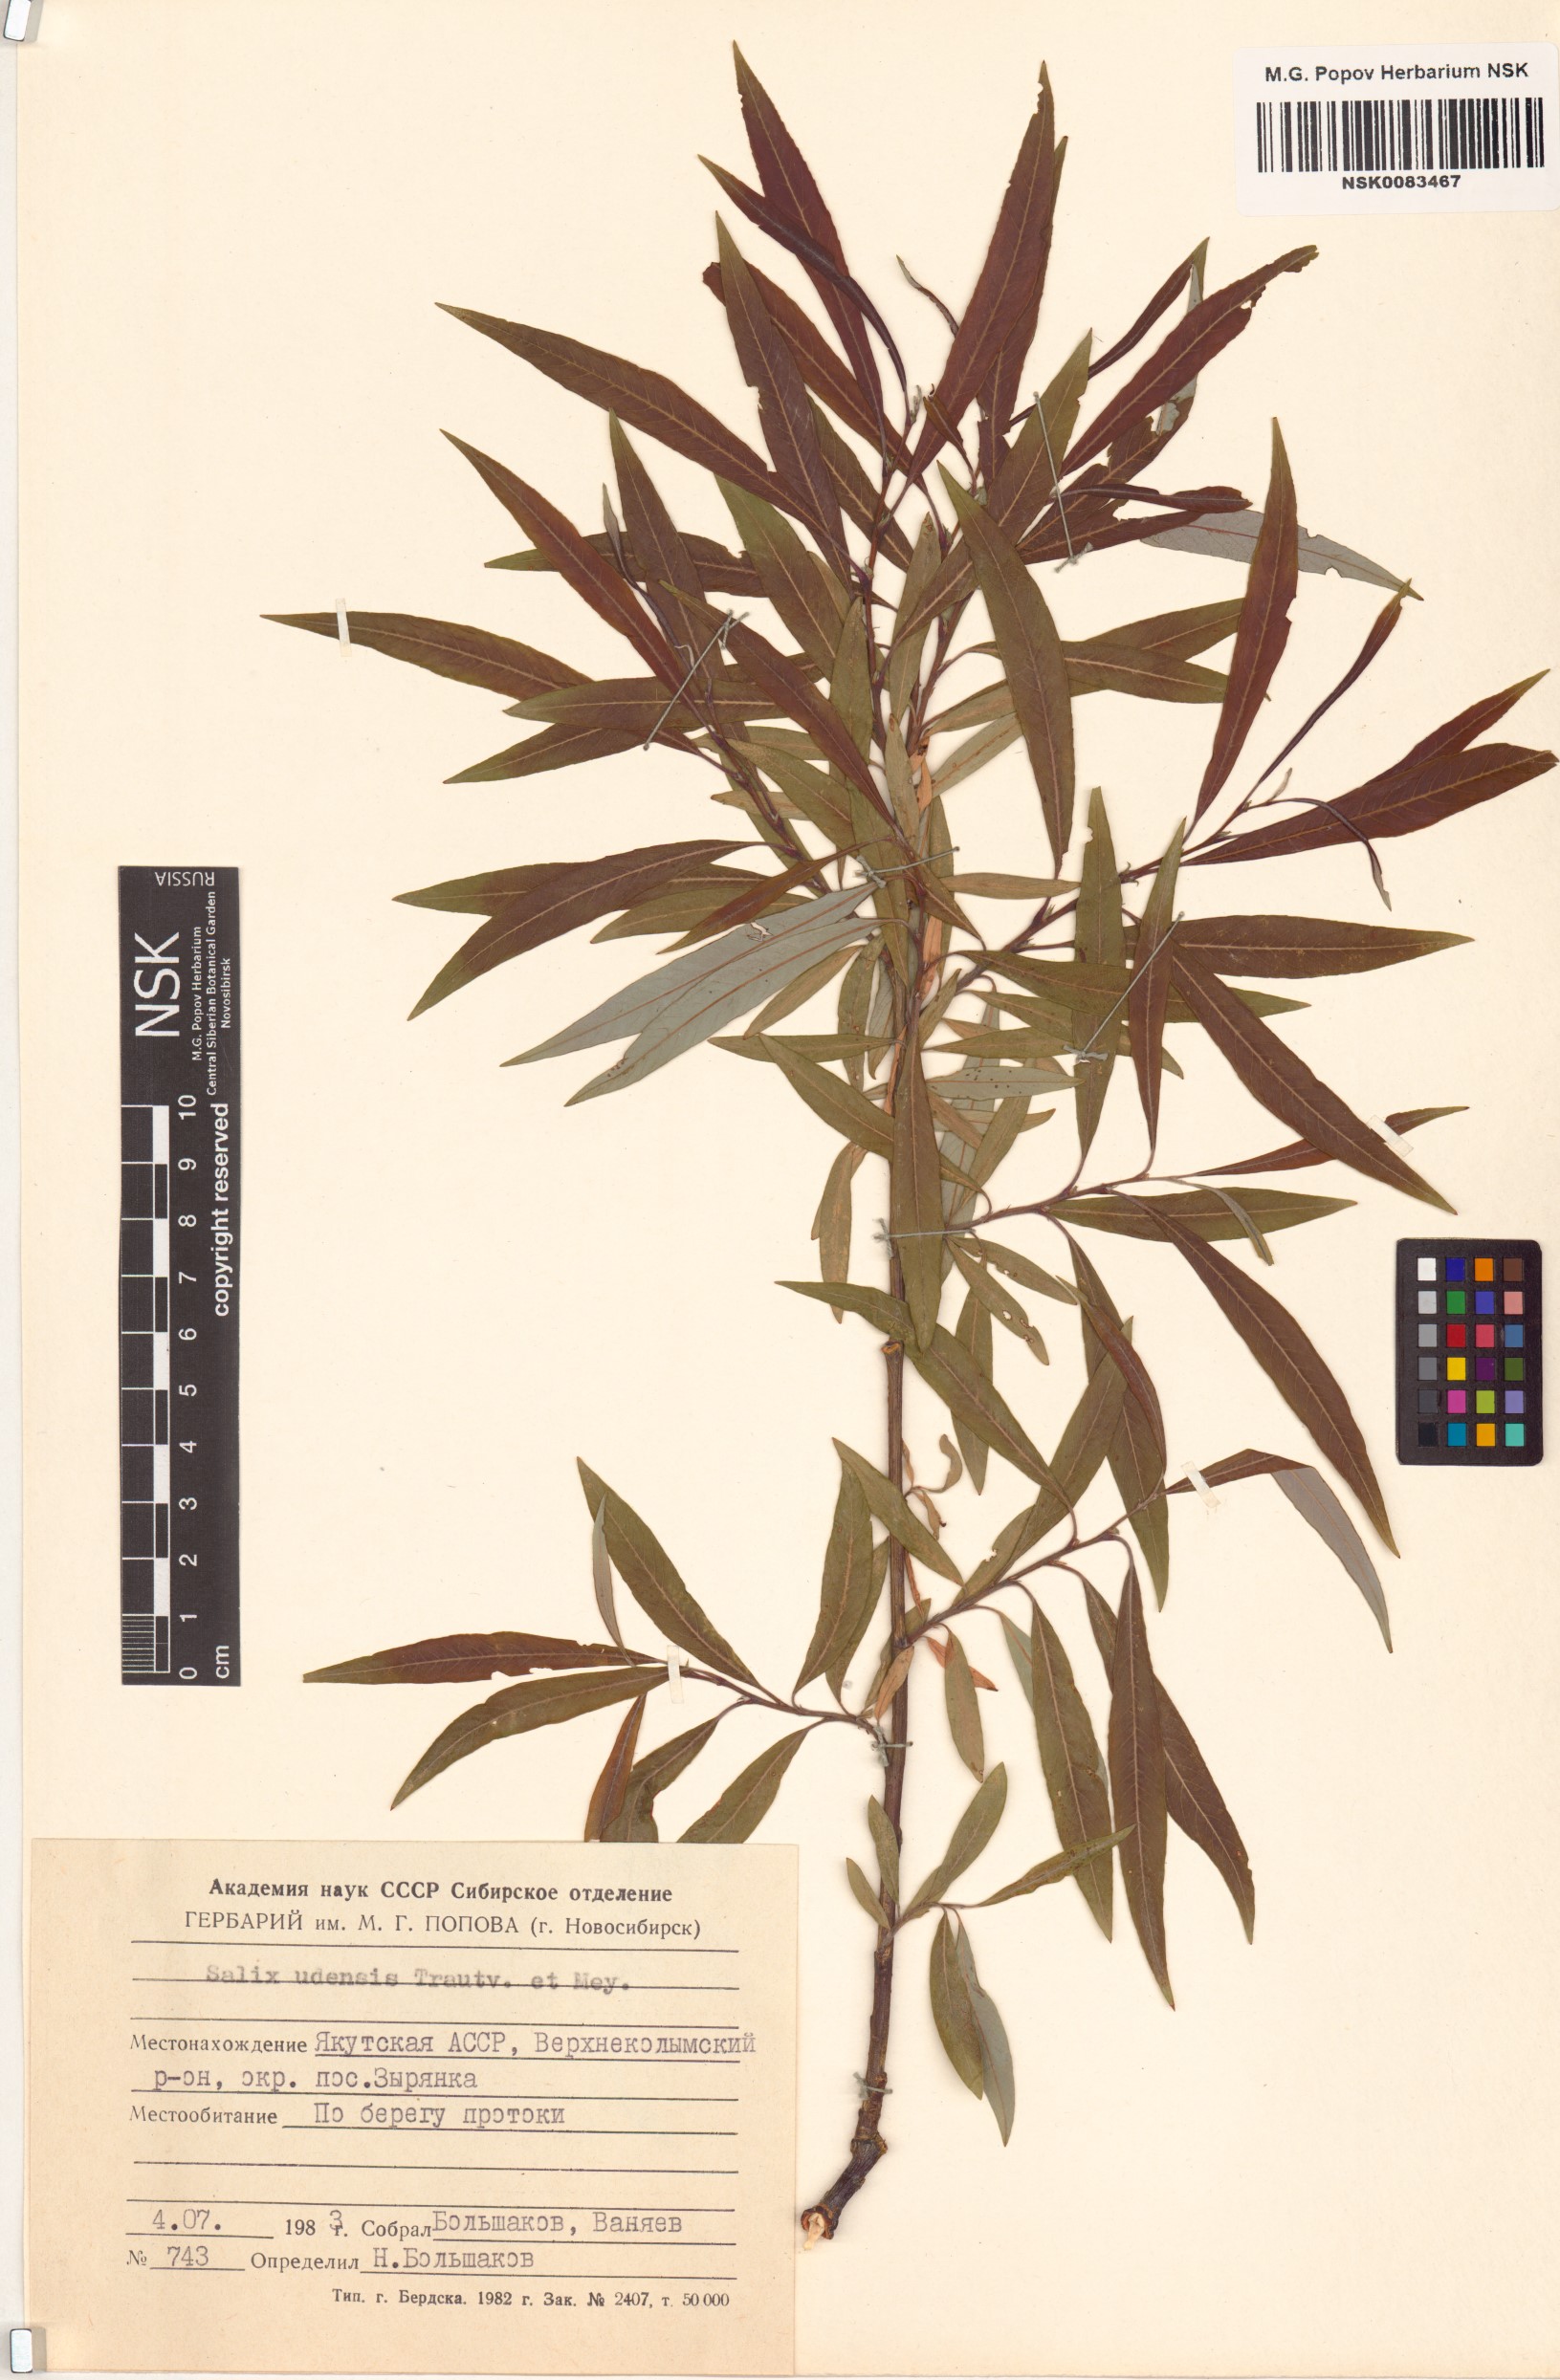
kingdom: Plantae
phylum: Tracheophyta
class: Magnoliopsida
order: Malpighiales
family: Salicaceae
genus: Salix
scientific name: Salix udensis
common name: Sachalin willow
